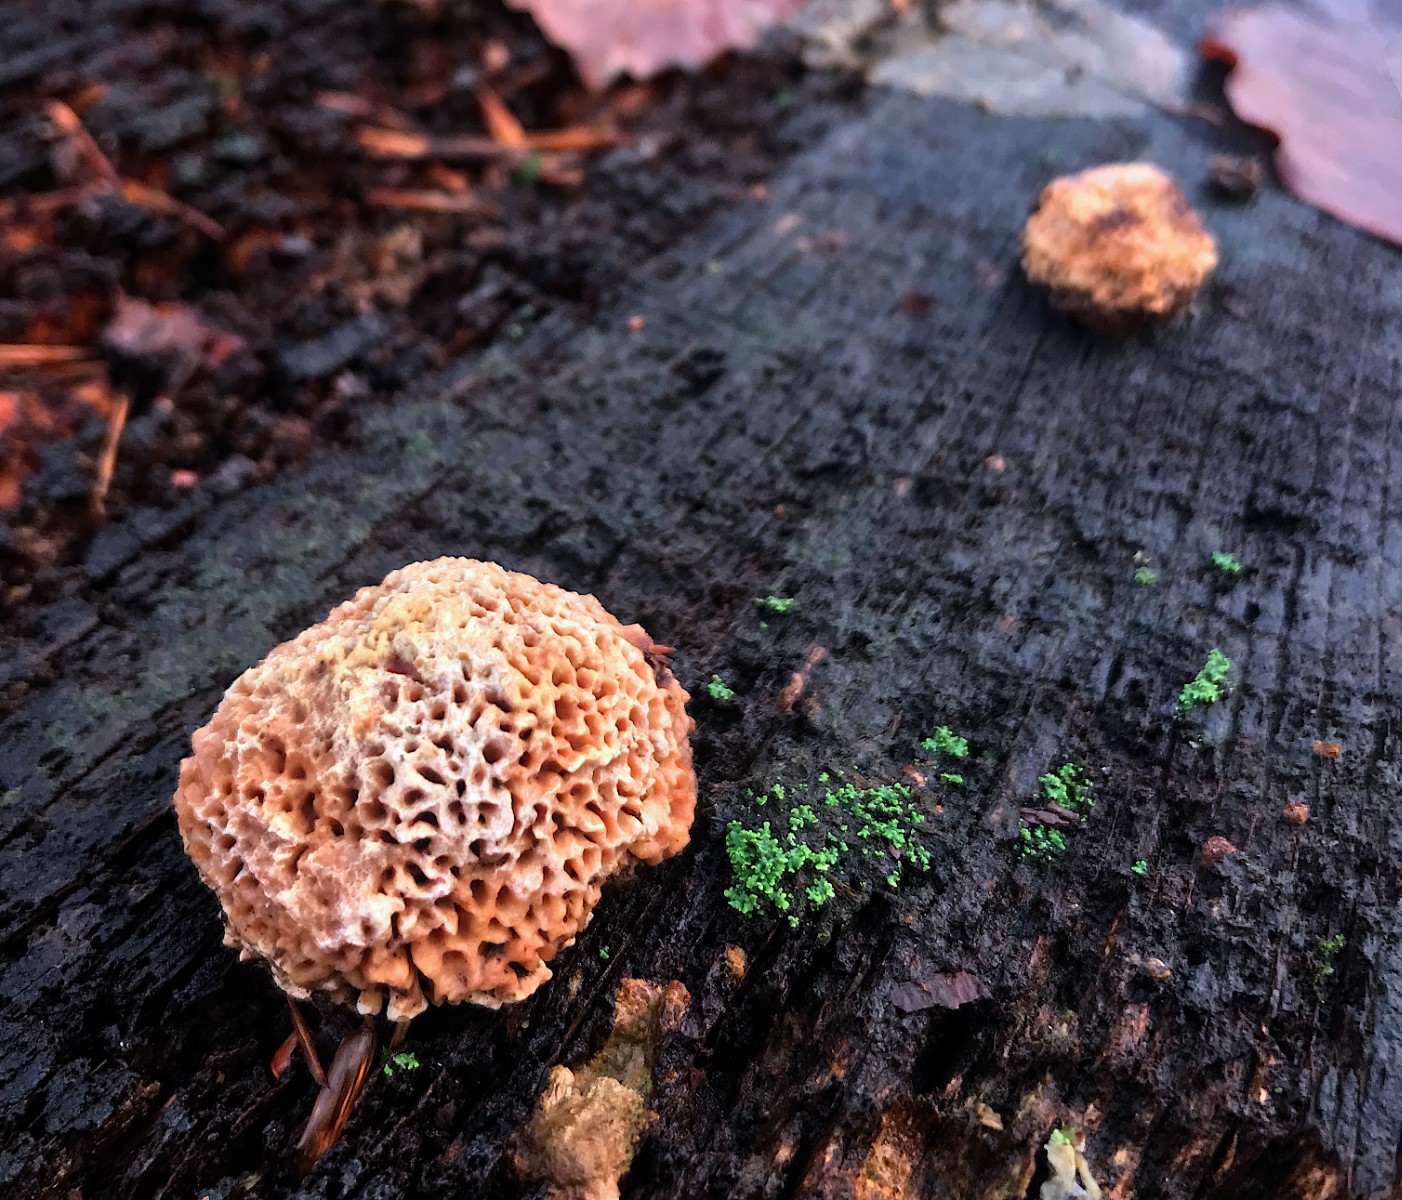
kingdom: Fungi
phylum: Basidiomycota
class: Agaricomycetes
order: Polyporales
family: Fomitopsidaceae
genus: Daedalea
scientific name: Daedalea quercina
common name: ege-labyrintsvamp
